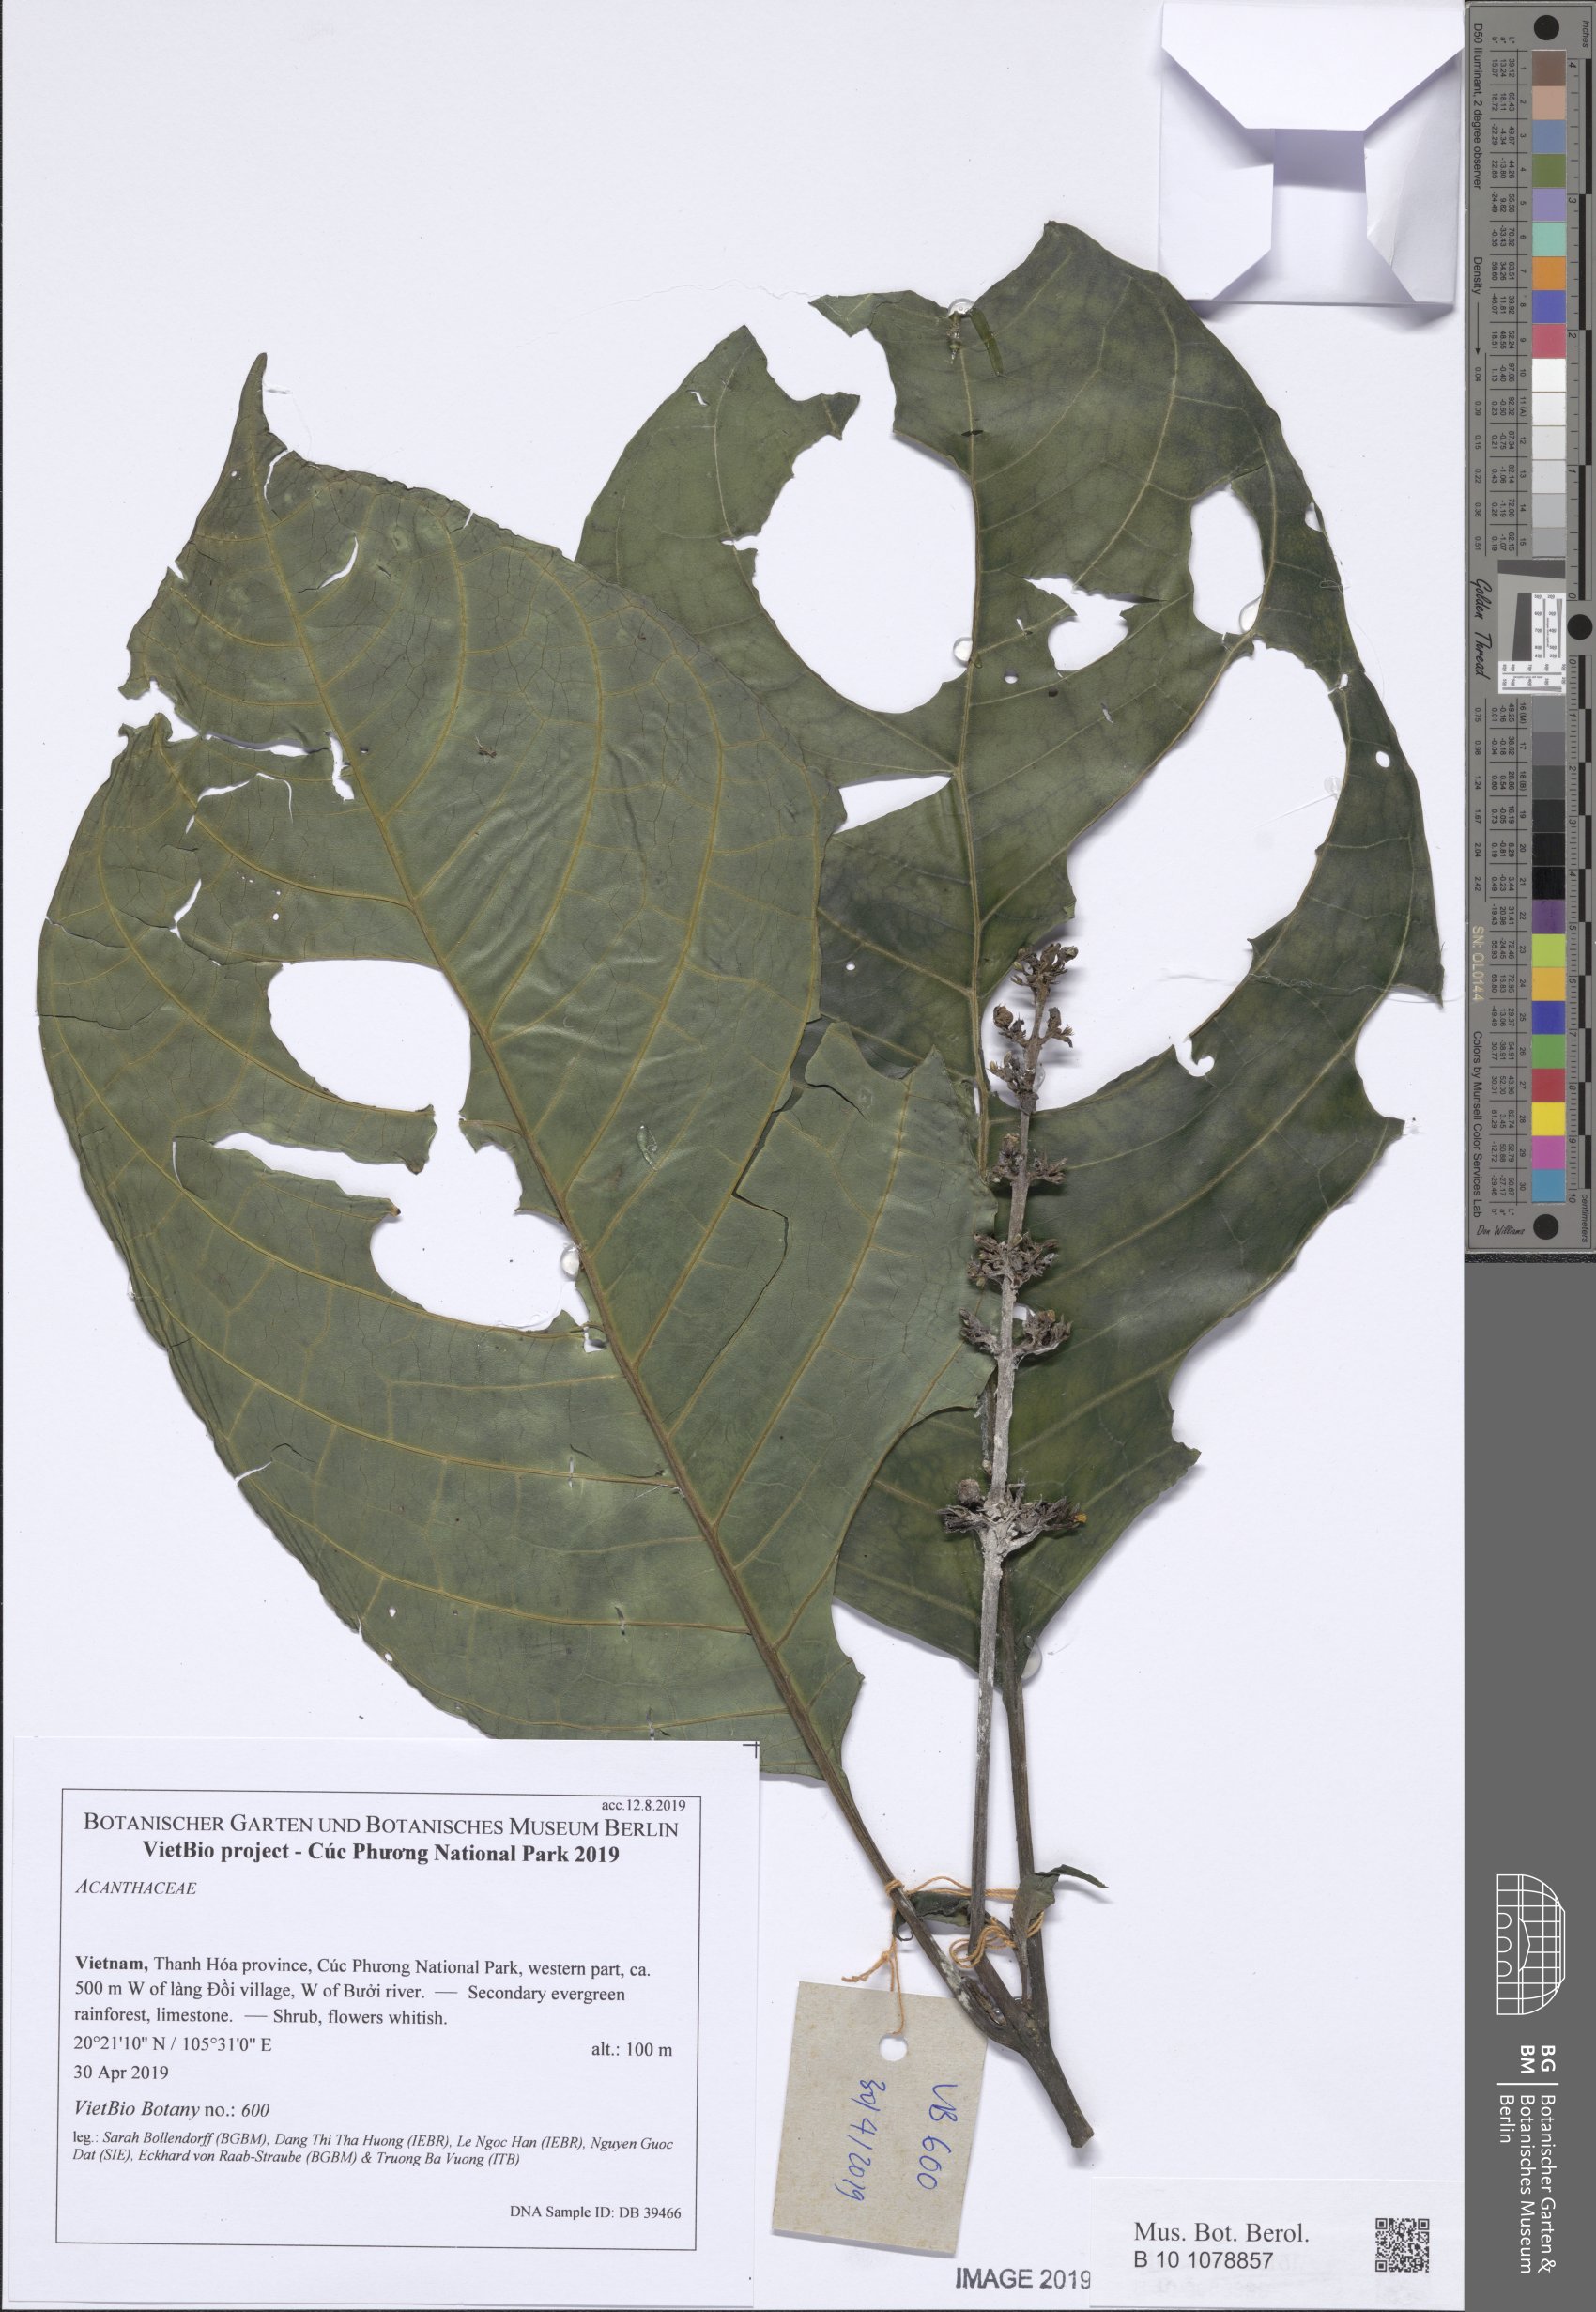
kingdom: Plantae
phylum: Tracheophyta
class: Magnoliopsida
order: Lamiales
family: Acanthaceae
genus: Phlogacanthus
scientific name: Phlogacanthus pyramidalis
